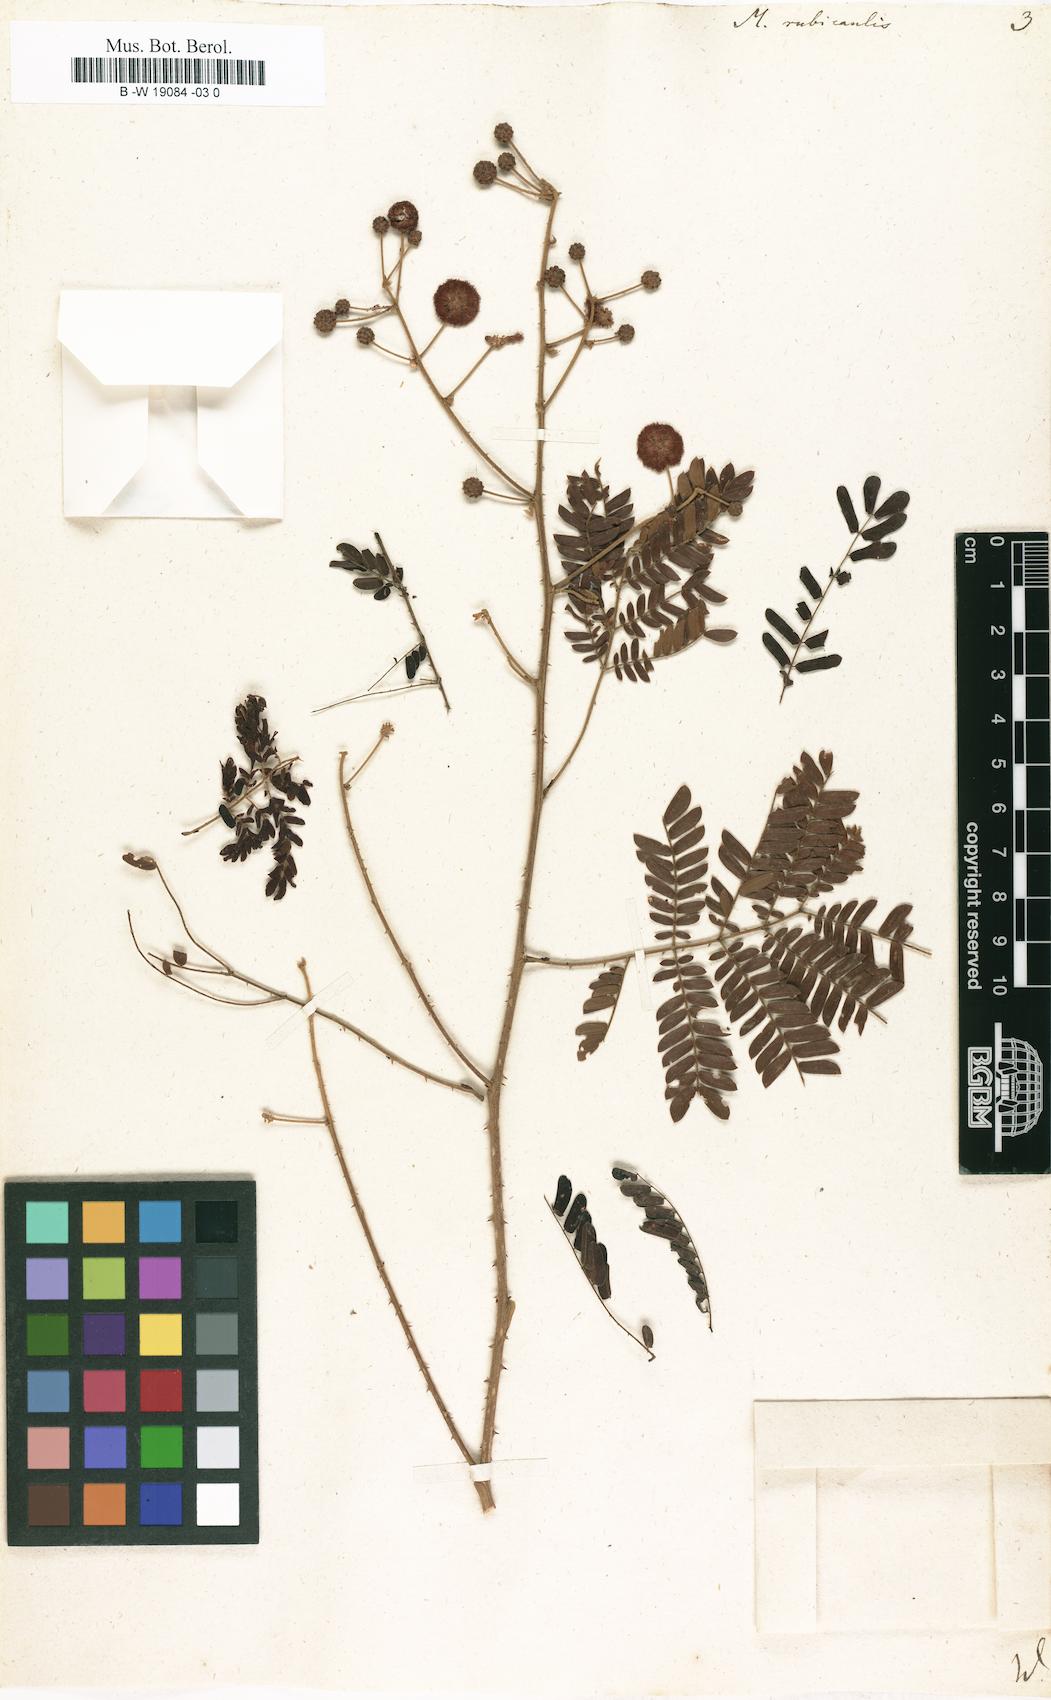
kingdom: Plantae
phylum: Tracheophyta
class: Magnoliopsida
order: Fabales
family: Fabaceae
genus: Mimosa
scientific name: Mimosa rubricaulis
